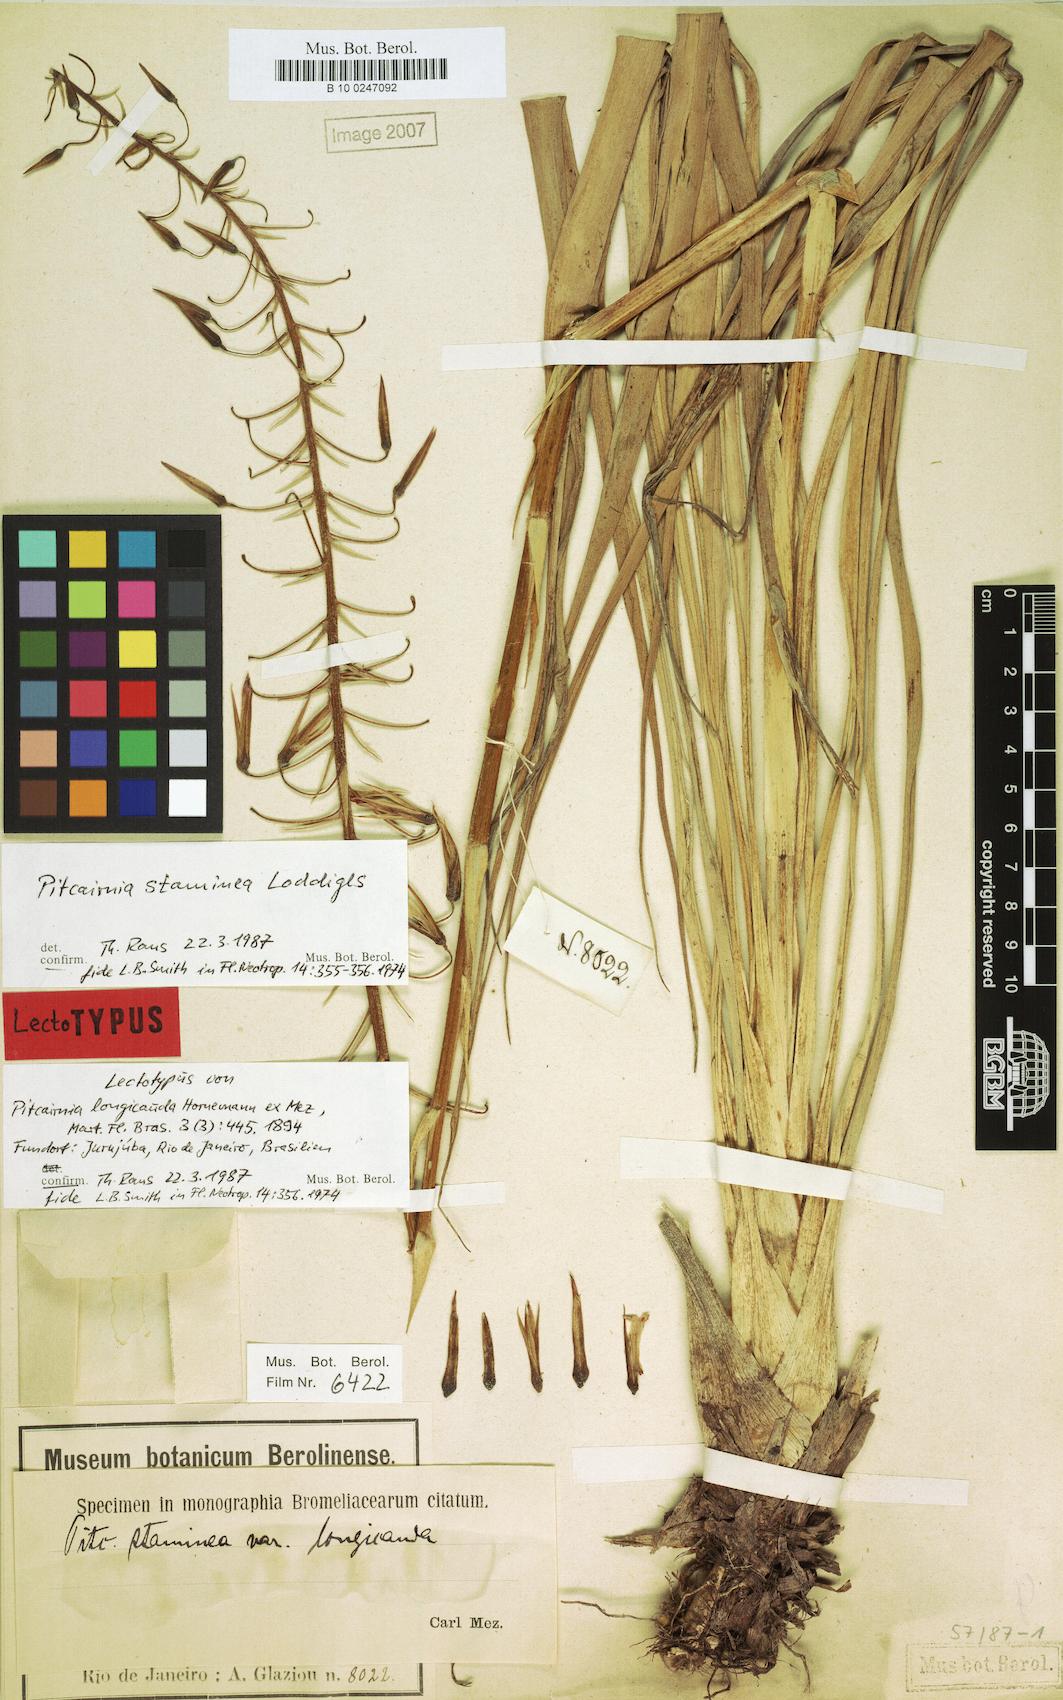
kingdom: Plantae
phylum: Tracheophyta
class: Liliopsida
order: Poales
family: Bromeliaceae
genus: Pitcairnia
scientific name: Pitcairnia staminea
